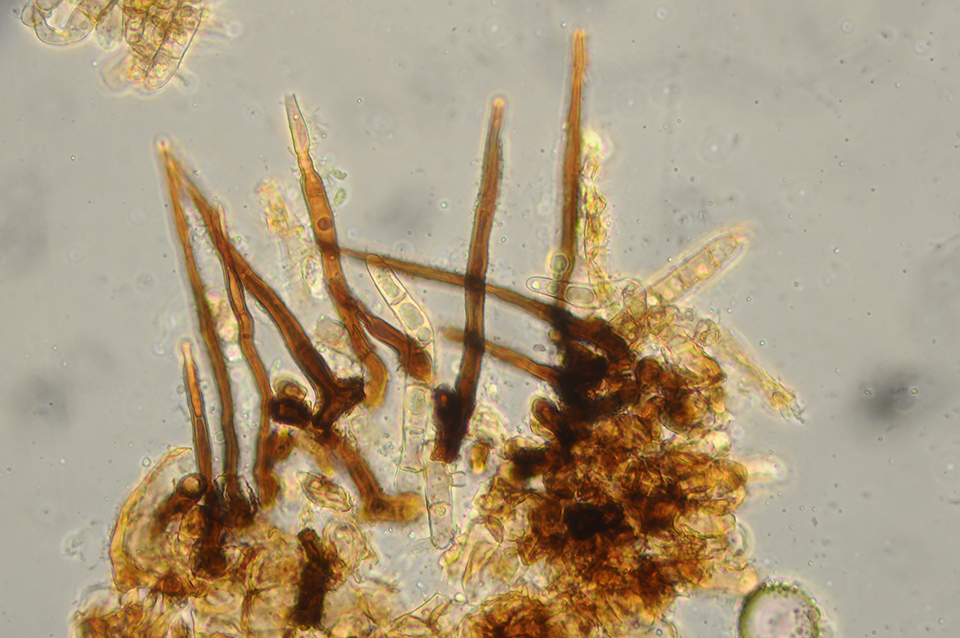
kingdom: Fungi
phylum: Ascomycota
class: Sordariomycetes
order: Sordariales
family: Lasiosphaeridaceae
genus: Lasiosphaeris
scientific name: Lasiosphaeris hirsuta
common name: sorthåret kernesvamp
